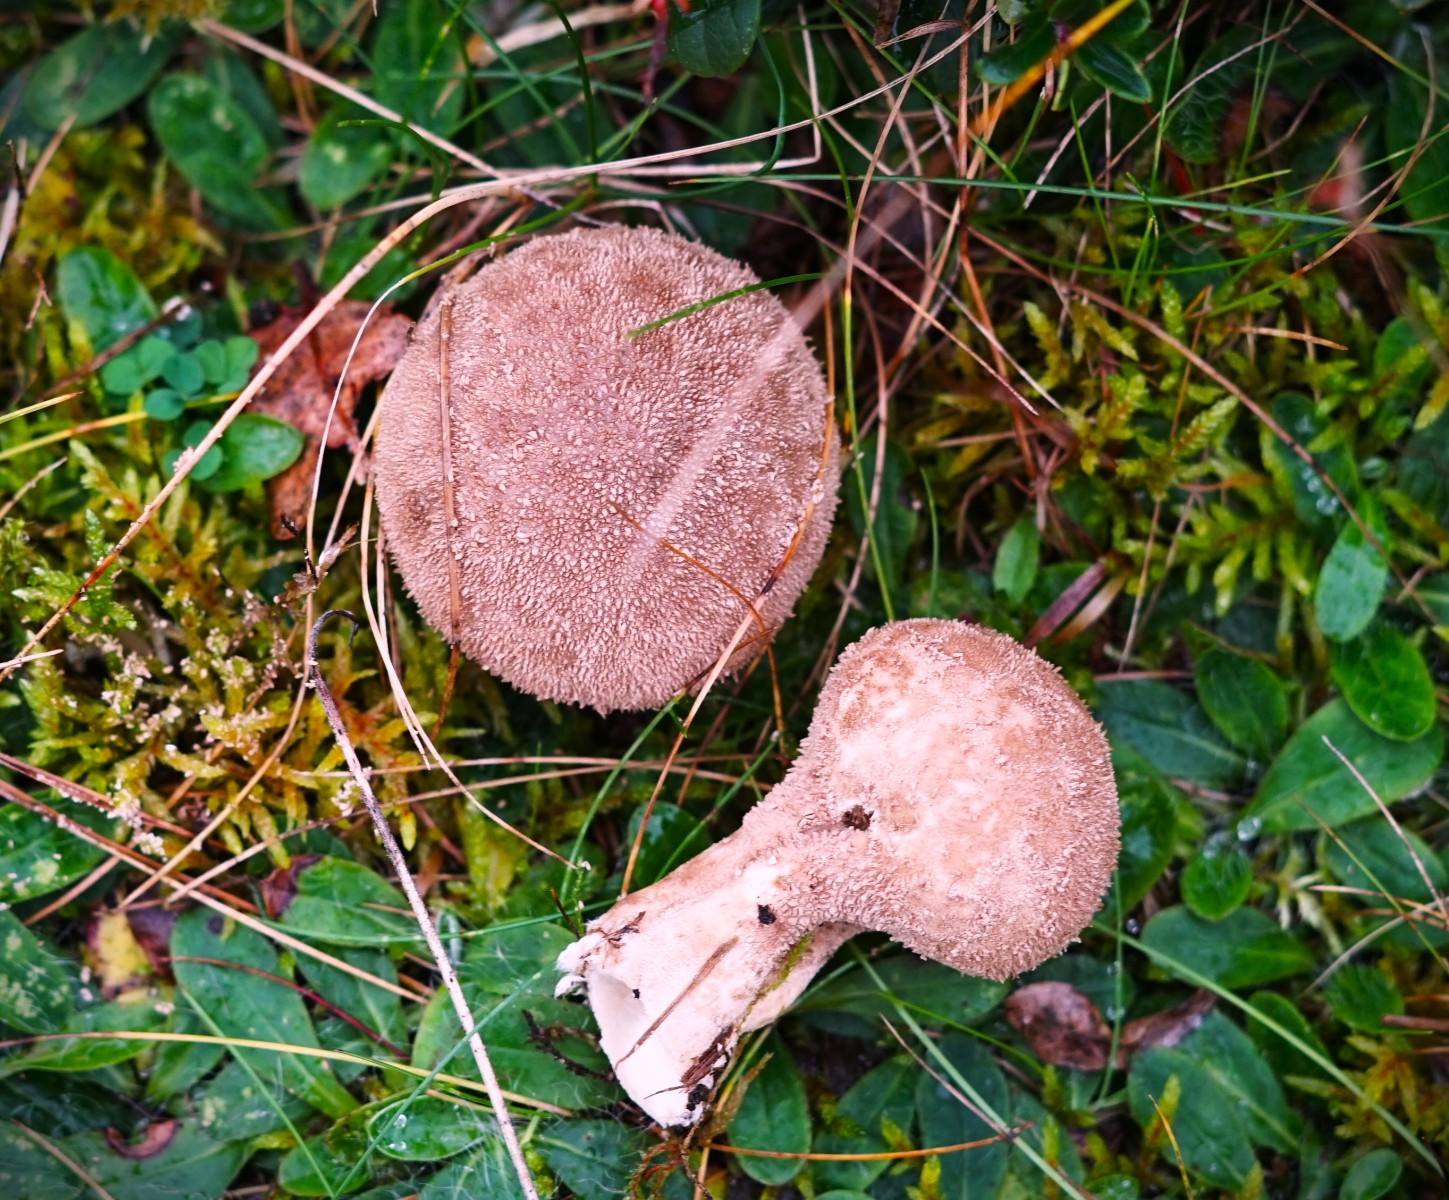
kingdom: Fungi
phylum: Basidiomycota
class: Agaricomycetes
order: Agaricales
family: Agaricaceae
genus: Lycoperdon
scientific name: Lycoperdon
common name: støvbold
